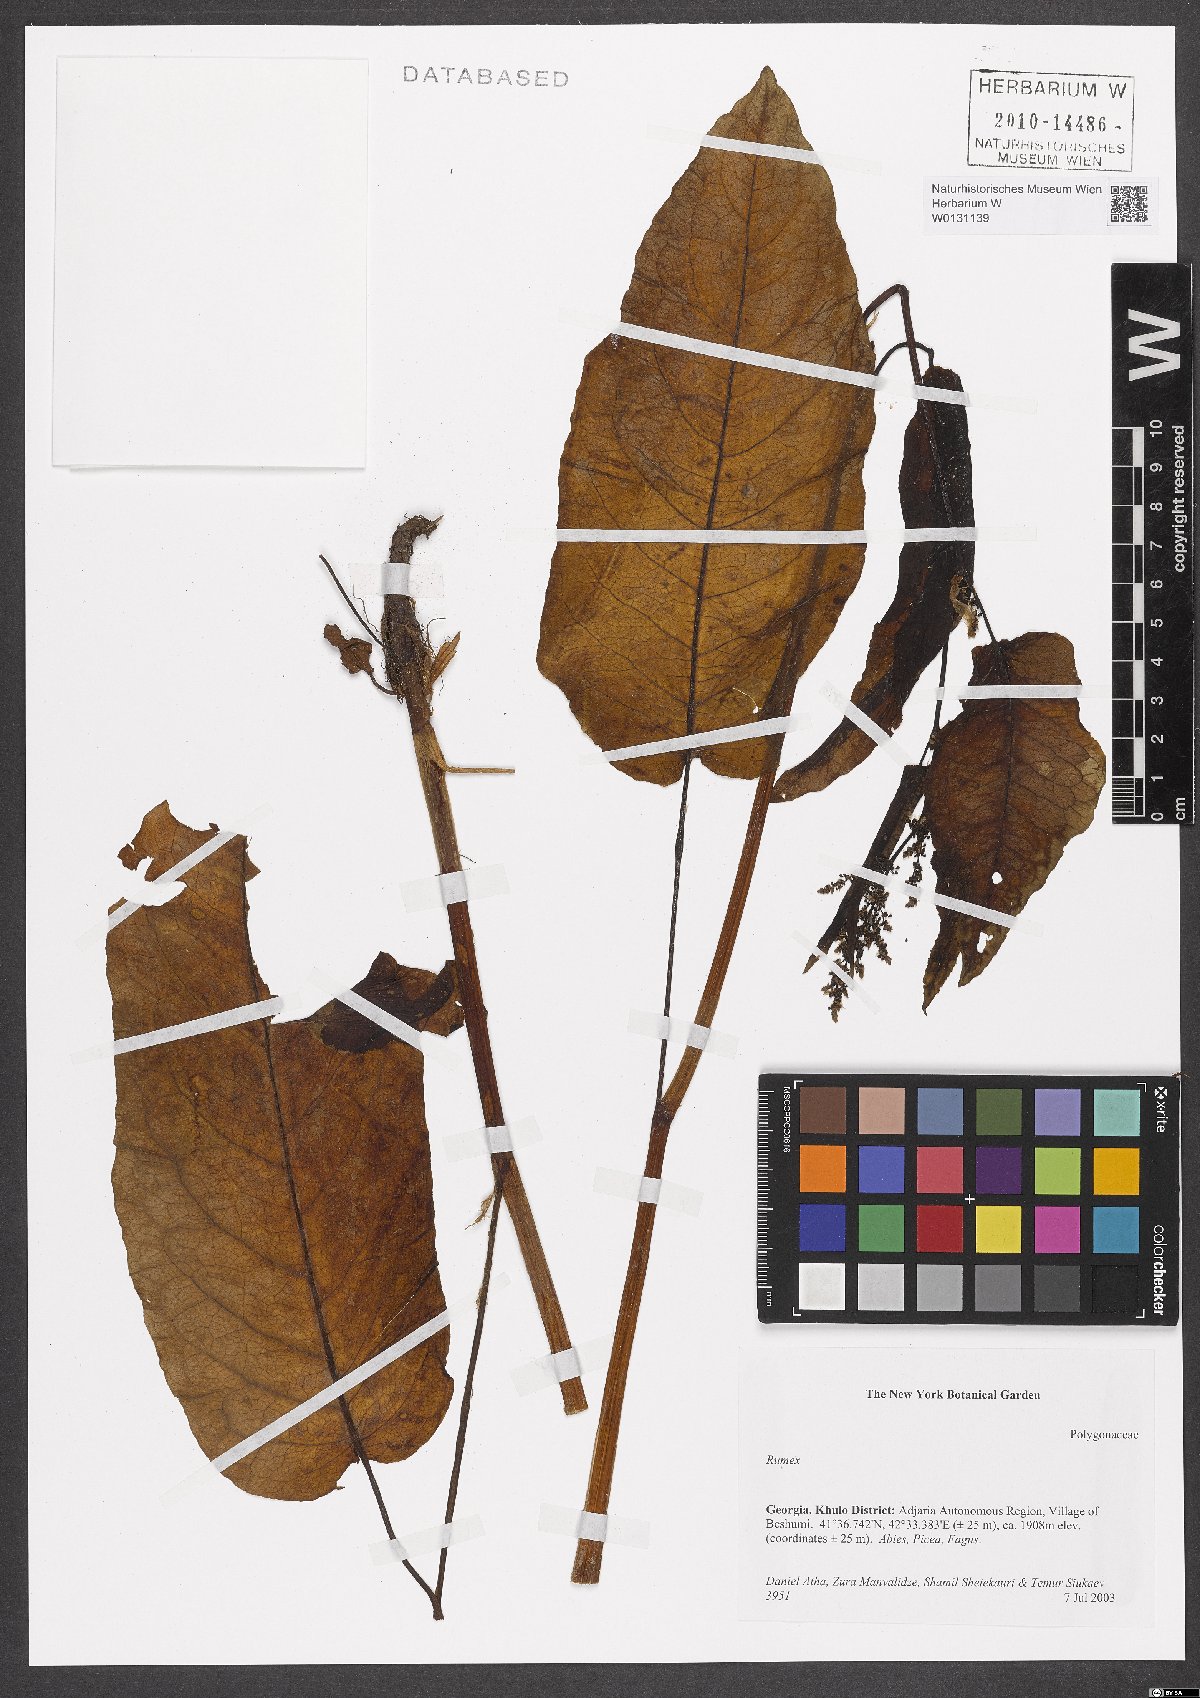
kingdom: Plantae
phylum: Tracheophyta
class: Magnoliopsida
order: Caryophyllales
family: Polygonaceae
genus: Rumex
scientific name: Rumex
